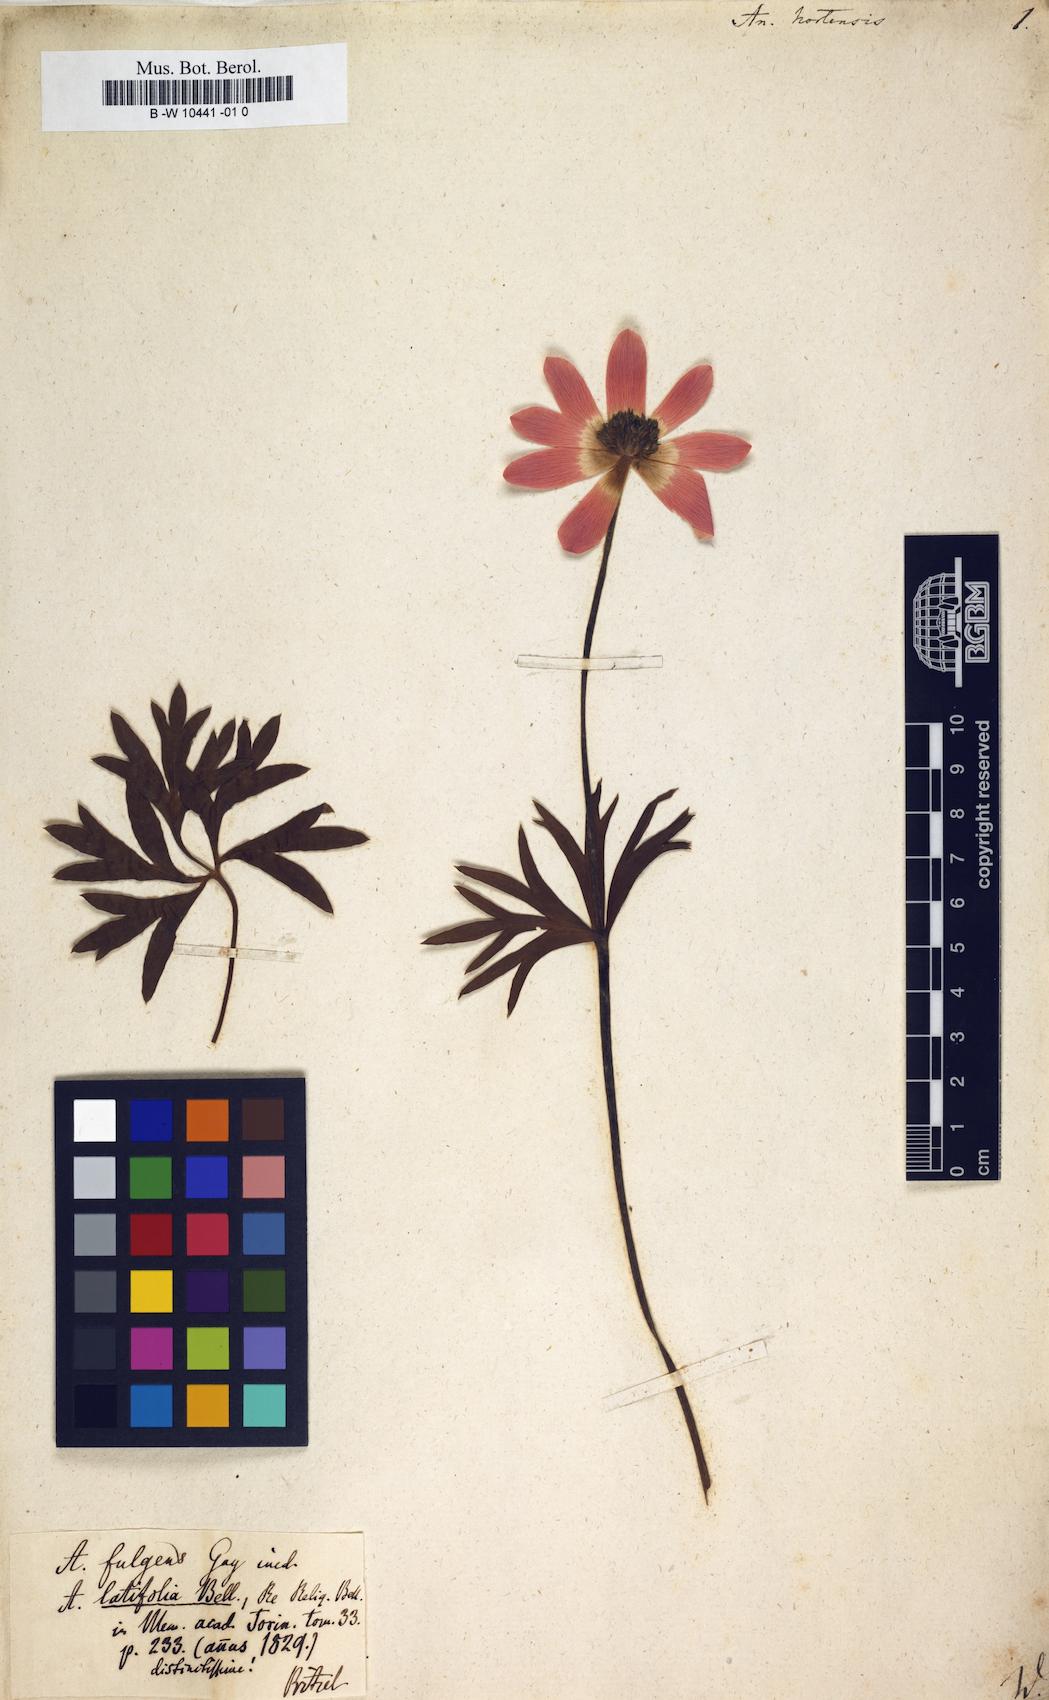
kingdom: Plantae
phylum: Tracheophyta
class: Magnoliopsida
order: Ranunculales
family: Ranunculaceae
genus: Anemone
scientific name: Anemone hortensis
